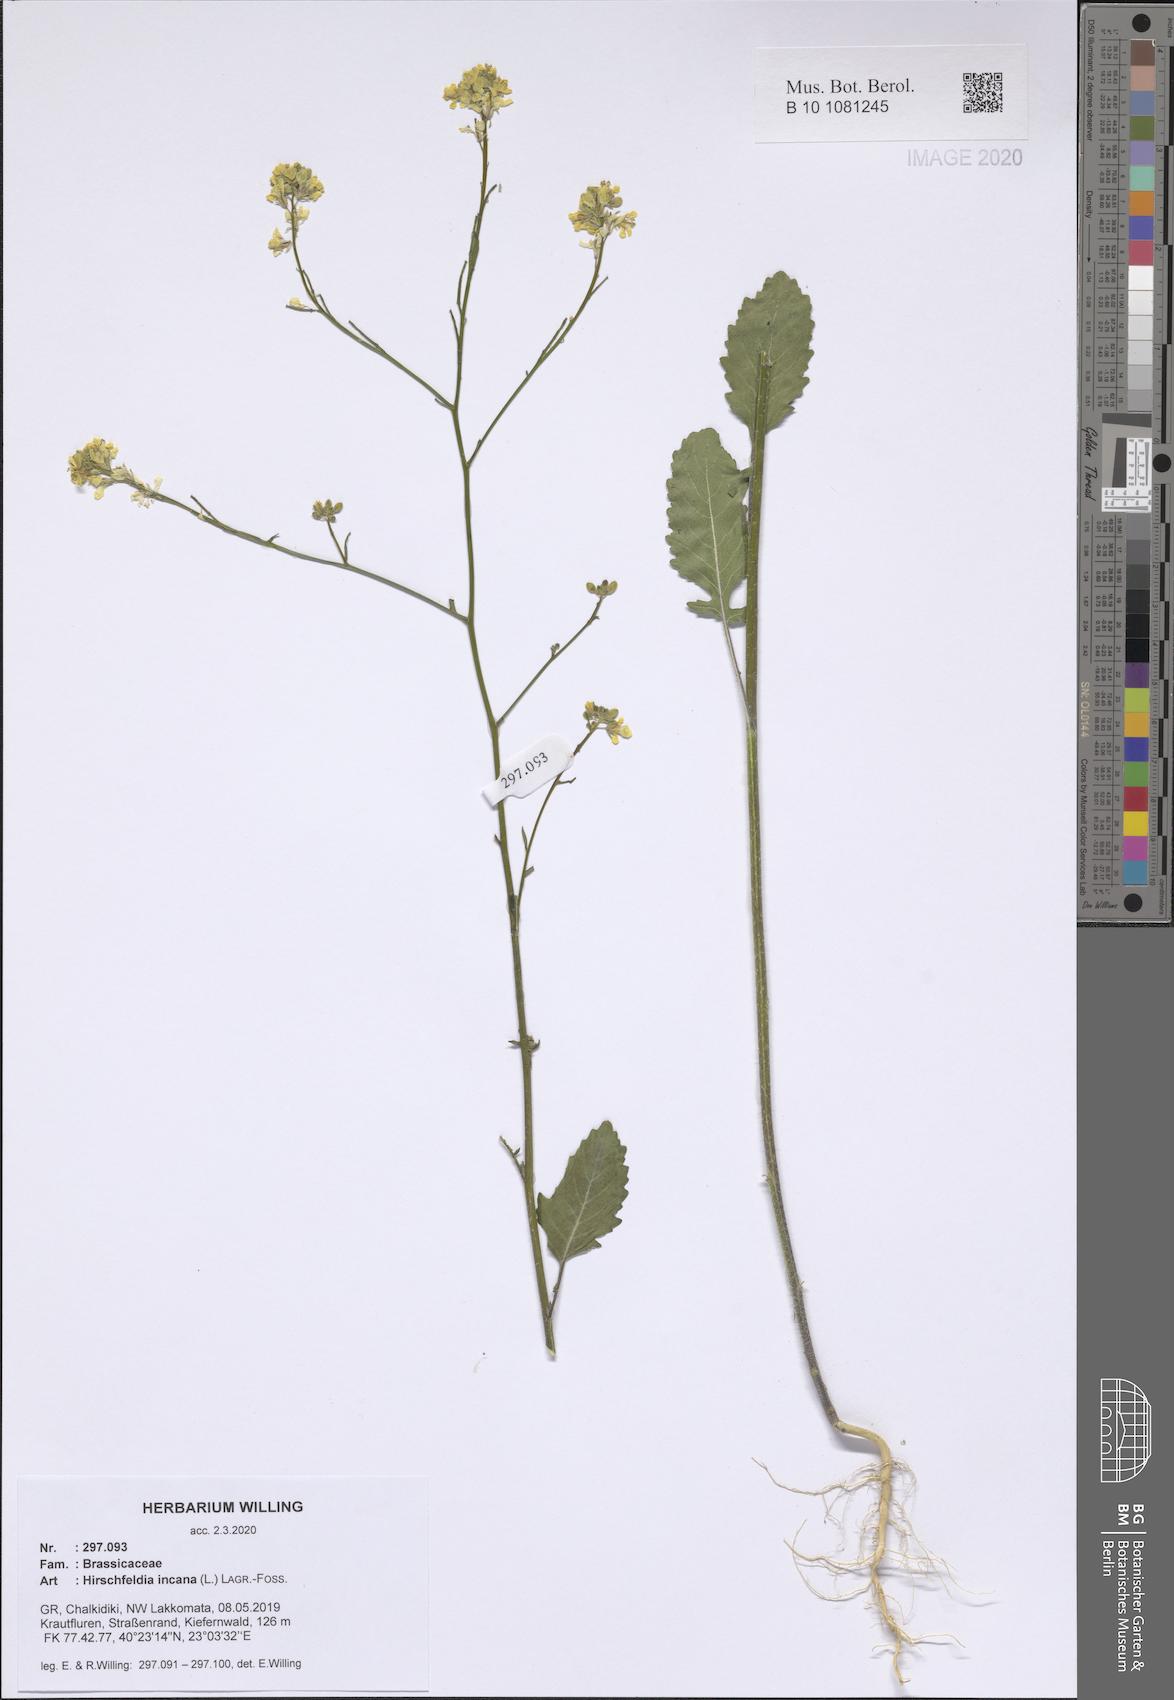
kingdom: Plantae
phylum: Tracheophyta
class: Magnoliopsida
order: Brassicales
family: Brassicaceae
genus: Hirschfeldia
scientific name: Hirschfeldia incana
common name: Hoary mustard
